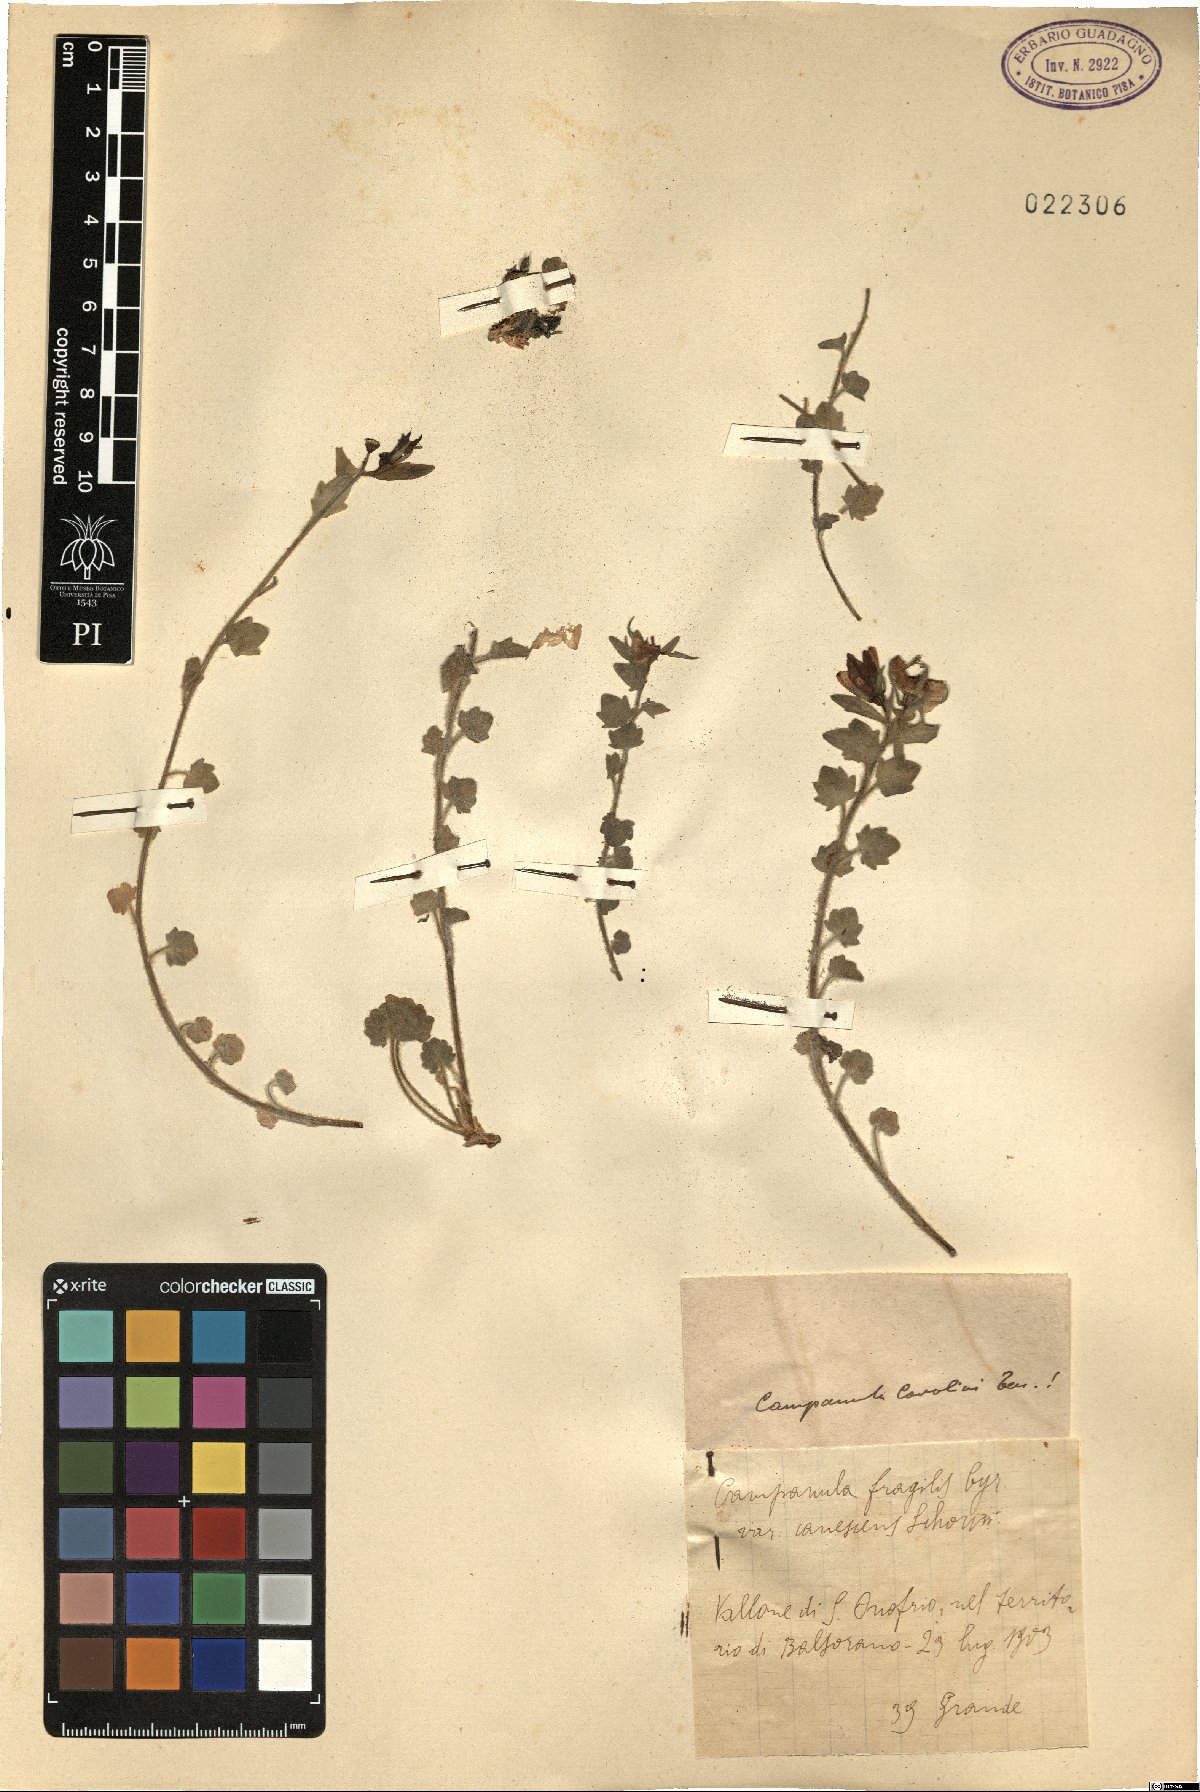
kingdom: Plantae
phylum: Tracheophyta
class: Magnoliopsida
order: Asterales
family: Campanulaceae
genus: Campanula
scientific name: Campanula fragilis
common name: Italian bellflower
